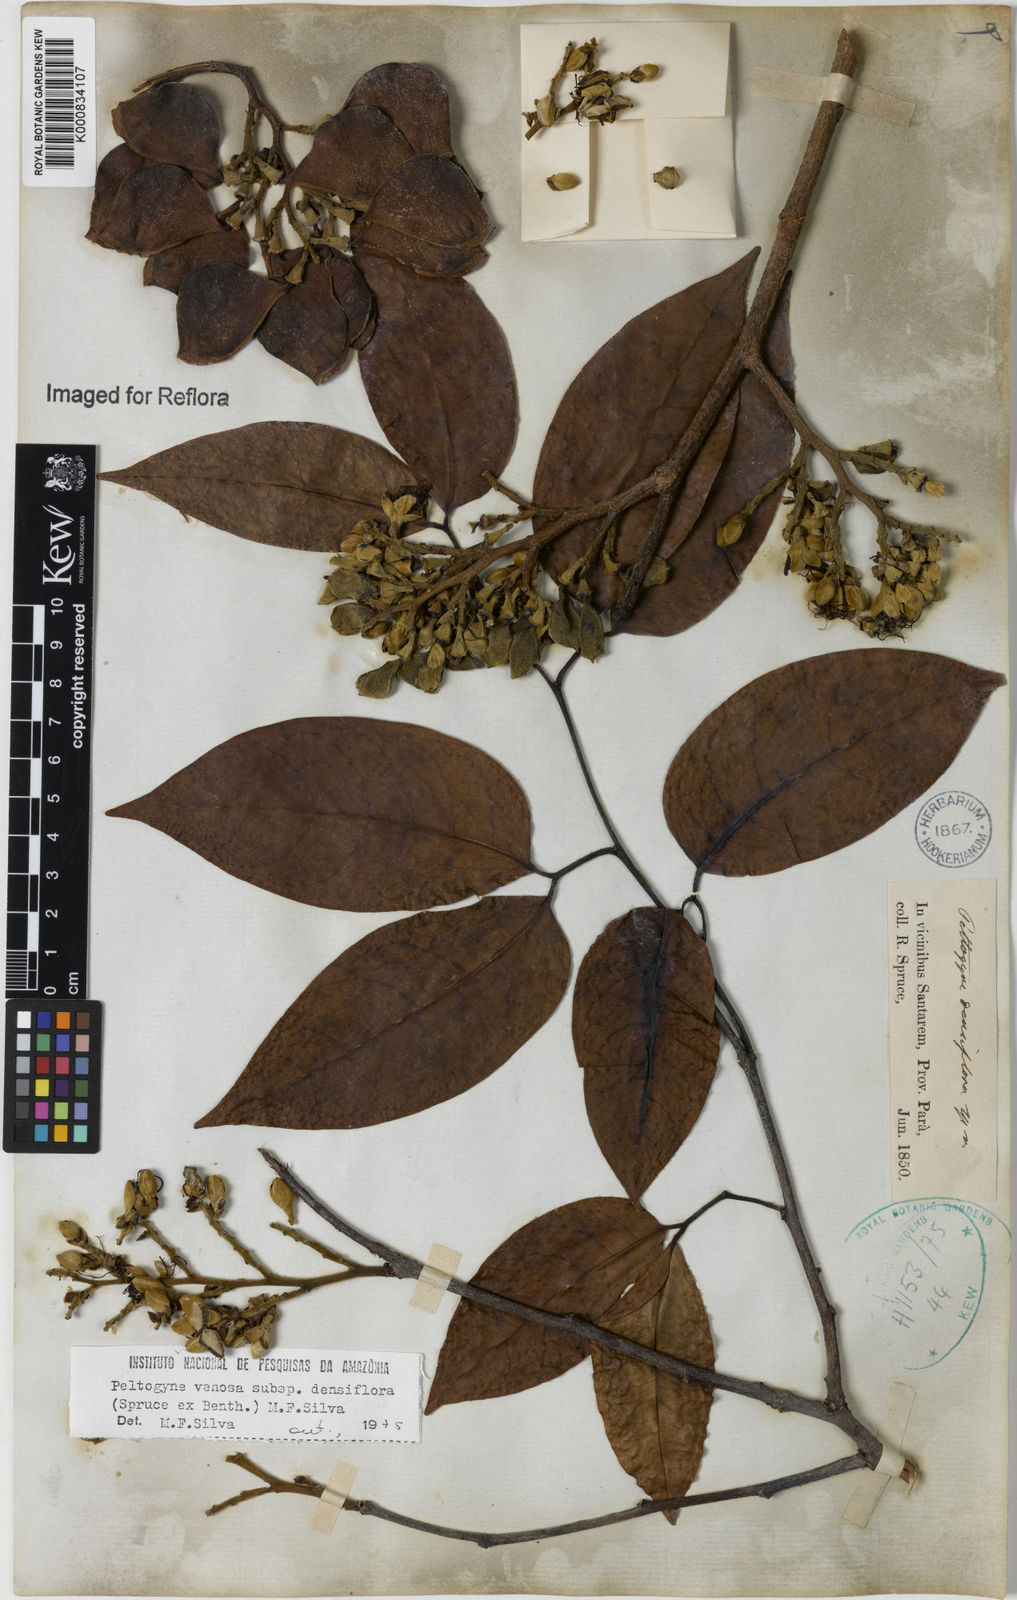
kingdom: Plantae
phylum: Tracheophyta
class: Magnoliopsida
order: Fabales
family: Fabaceae
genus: Peltogyne
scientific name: Peltogyne venosa
